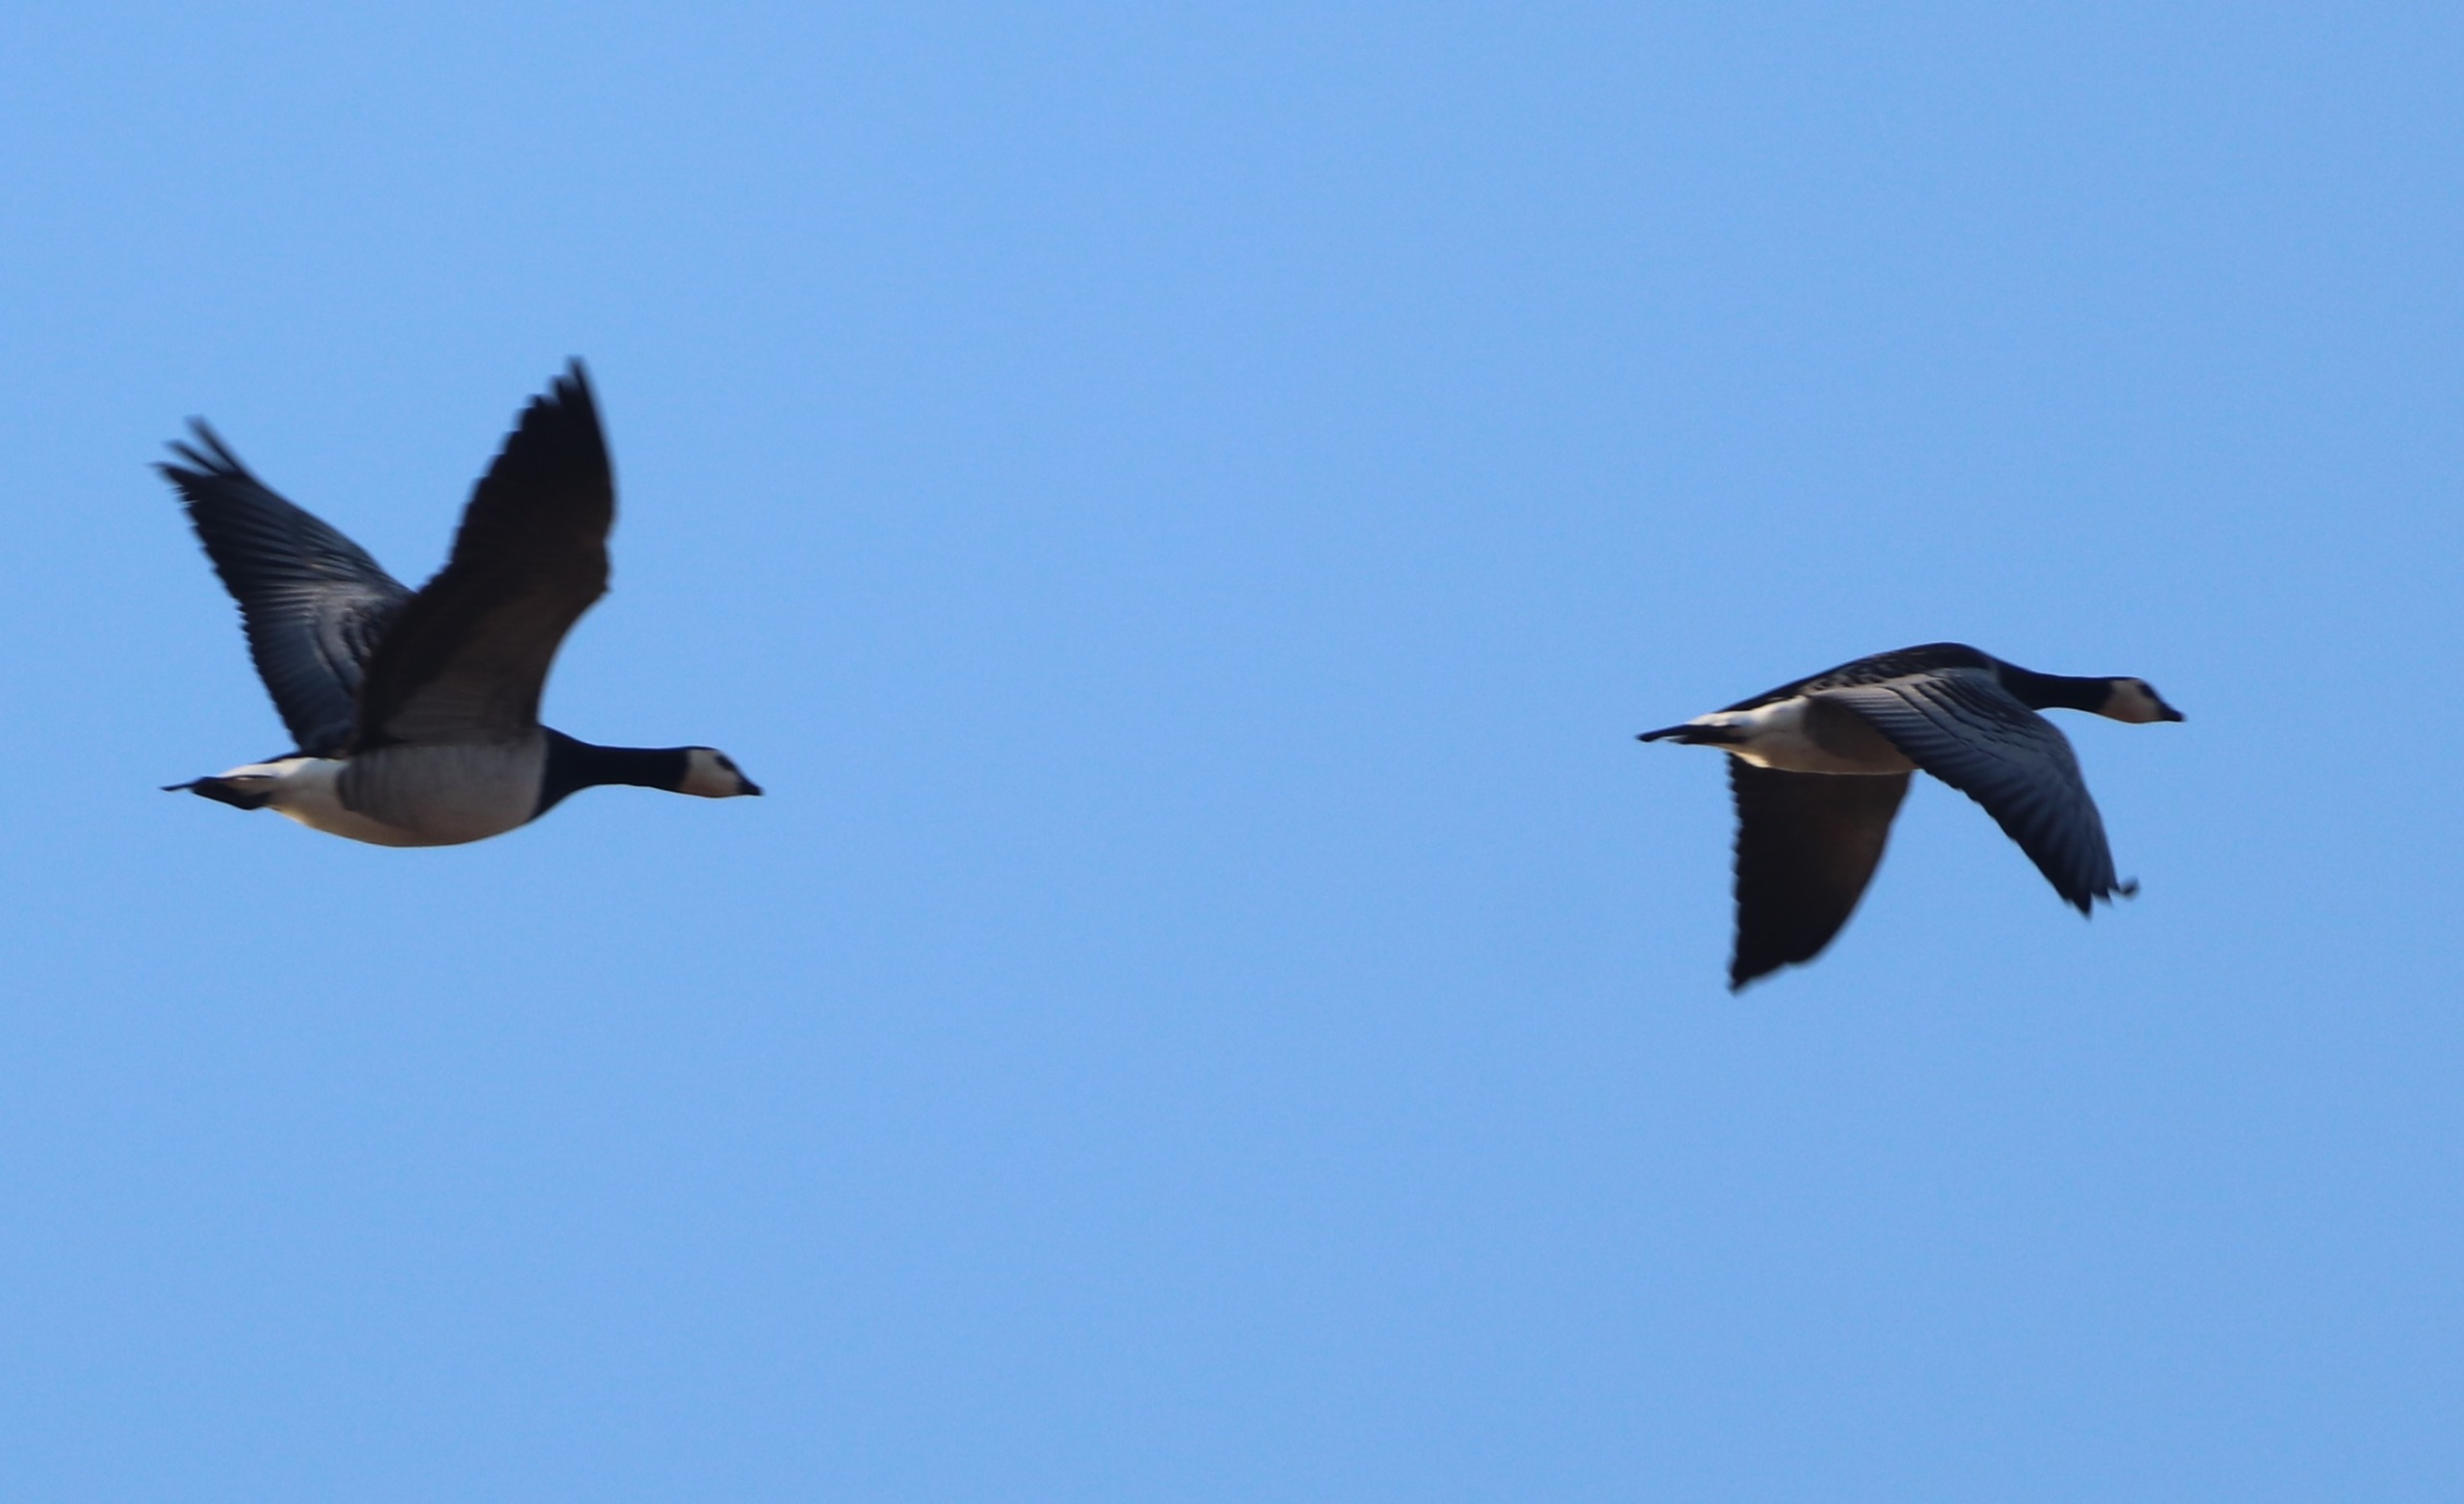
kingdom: Animalia
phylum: Chordata
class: Aves
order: Anseriformes
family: Anatidae
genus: Branta
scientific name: Branta leucopsis
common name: Bramgås
